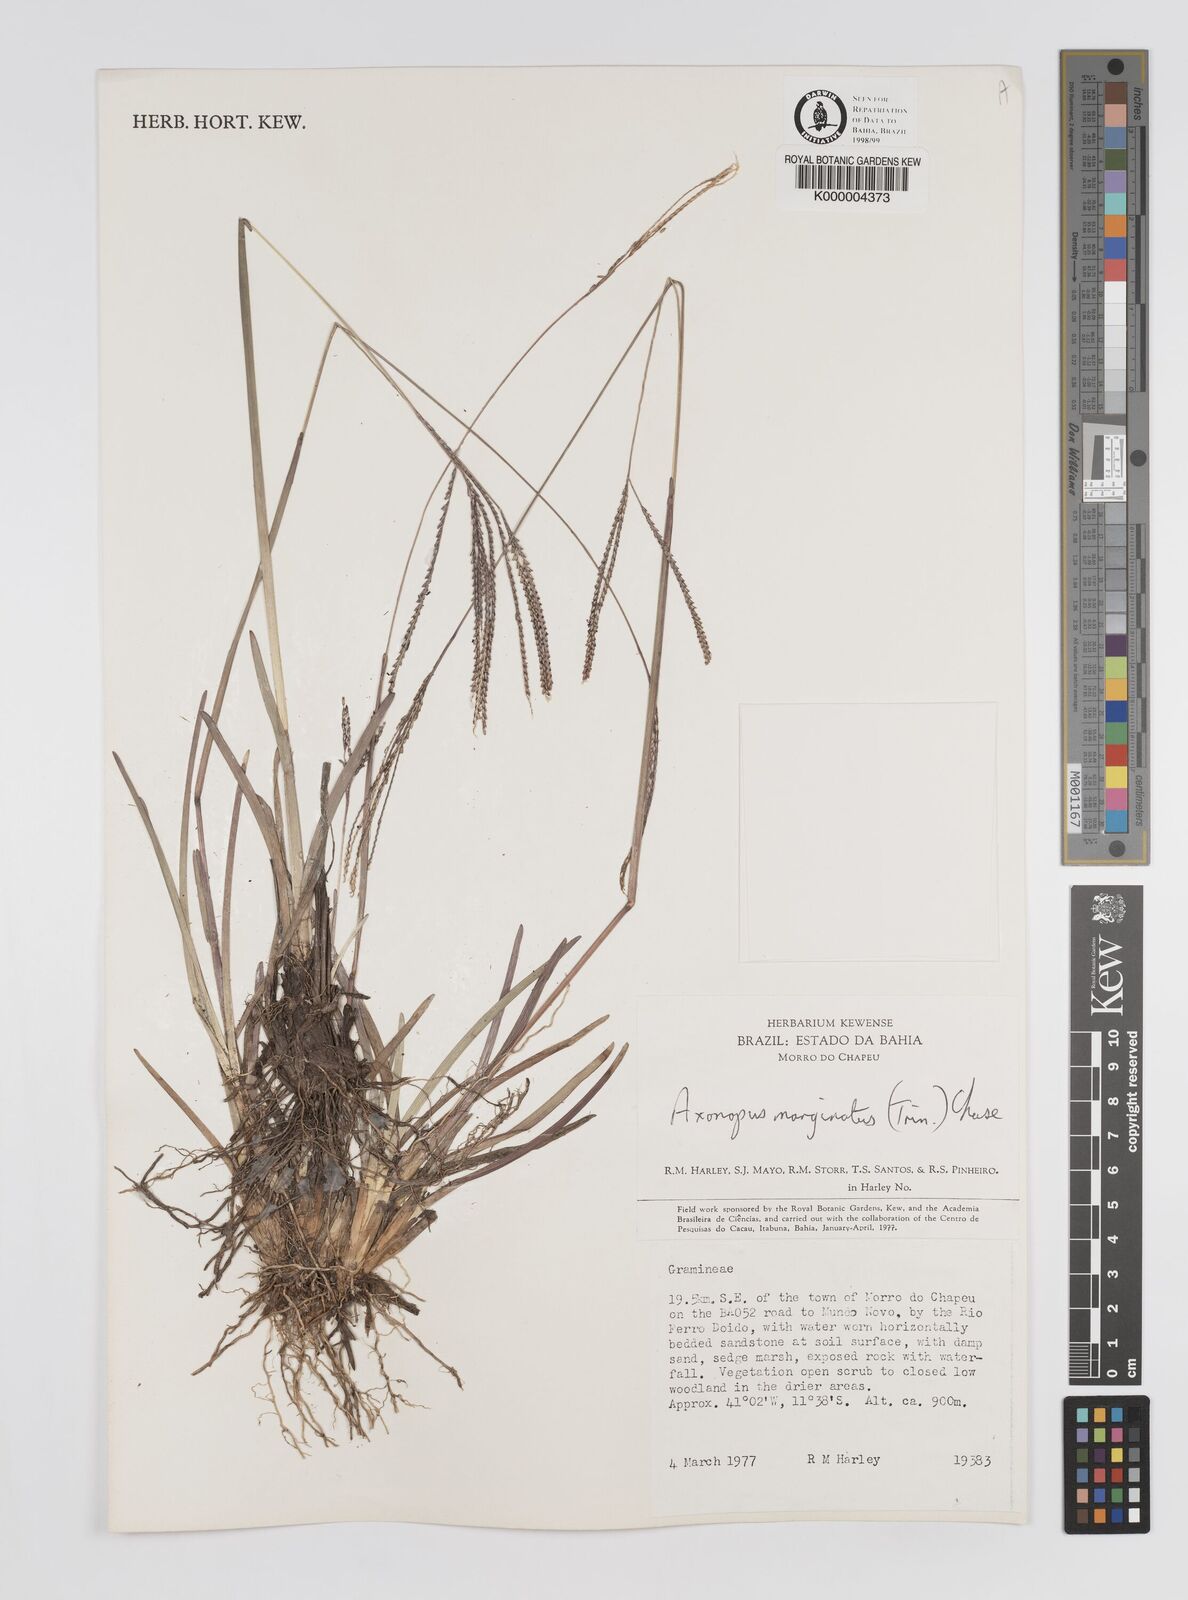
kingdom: Plantae
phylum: Tracheophyta
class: Liliopsida
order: Poales
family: Poaceae
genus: Axonopus
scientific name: Axonopus
